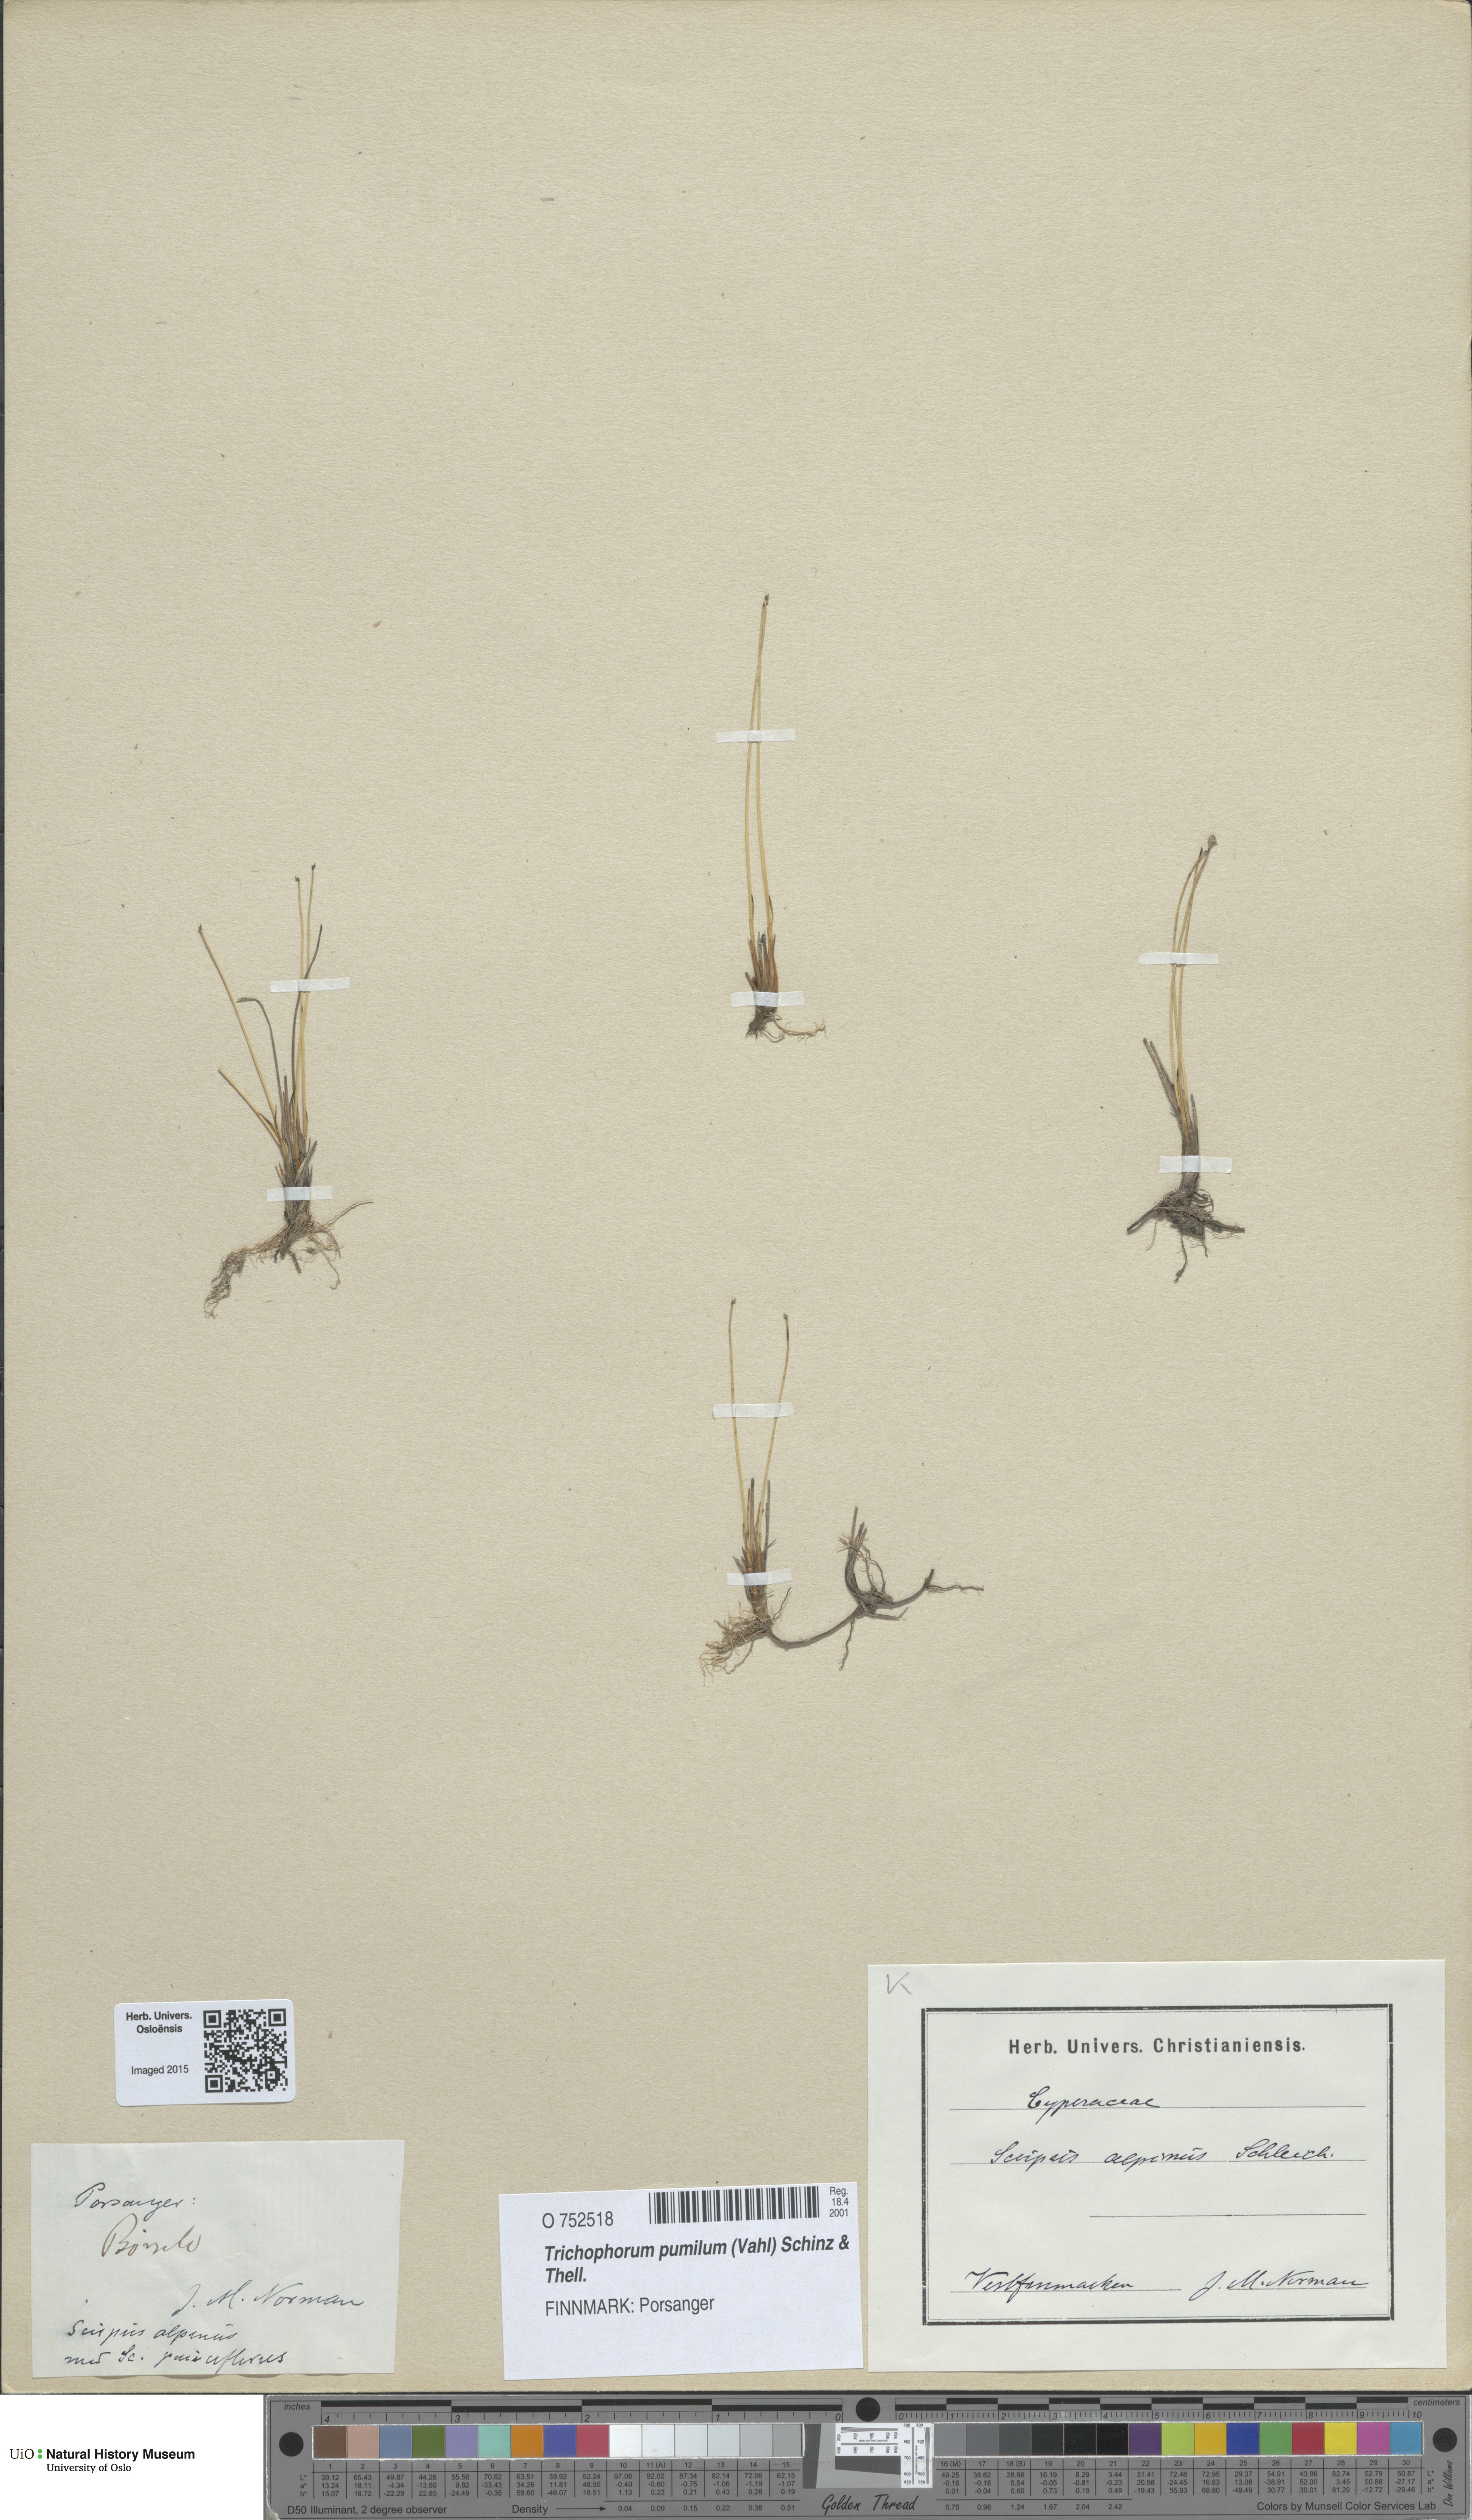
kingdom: Plantae
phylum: Tracheophyta
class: Liliopsida
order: Poales
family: Cyperaceae
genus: Trichophorum
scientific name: Trichophorum pumilum
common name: Rolland's bulrush
